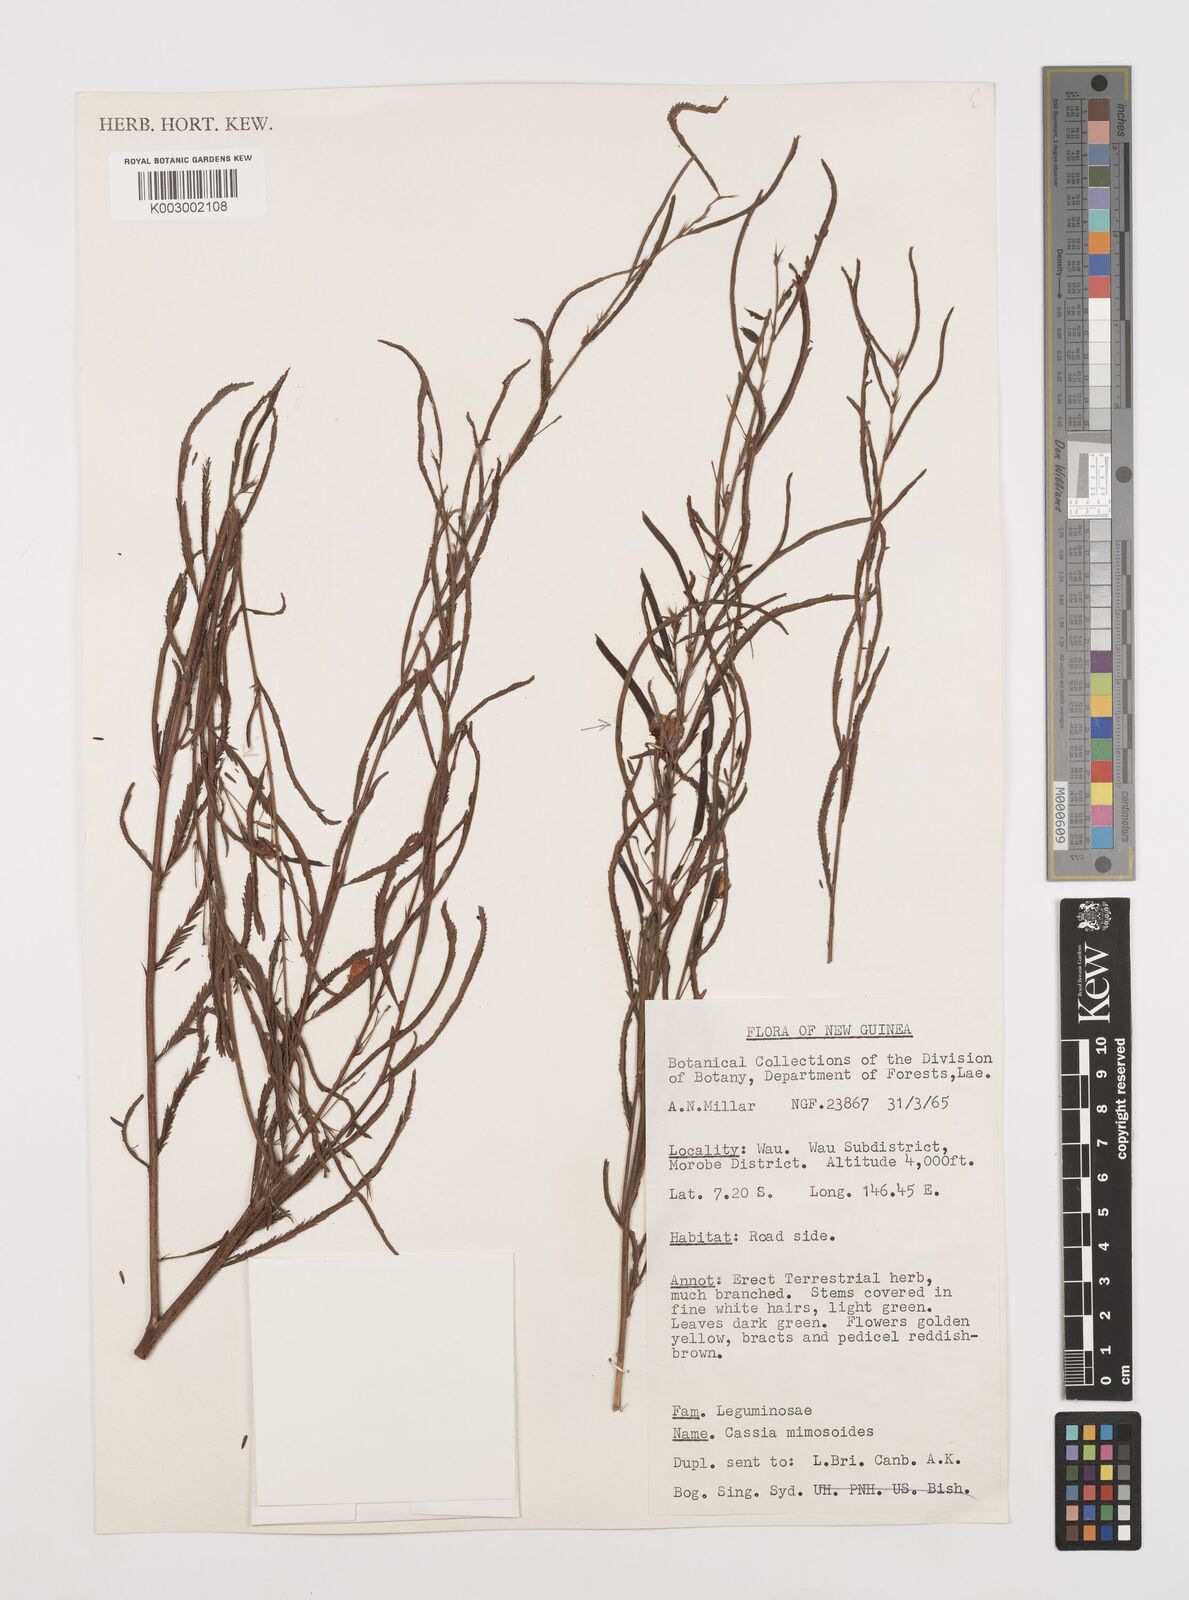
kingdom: Plantae
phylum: Tracheophyta
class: Magnoliopsida
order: Fabales
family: Fabaceae
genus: Chamaecrista
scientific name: Chamaecrista mimosoides
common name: Fish-bone cassia
